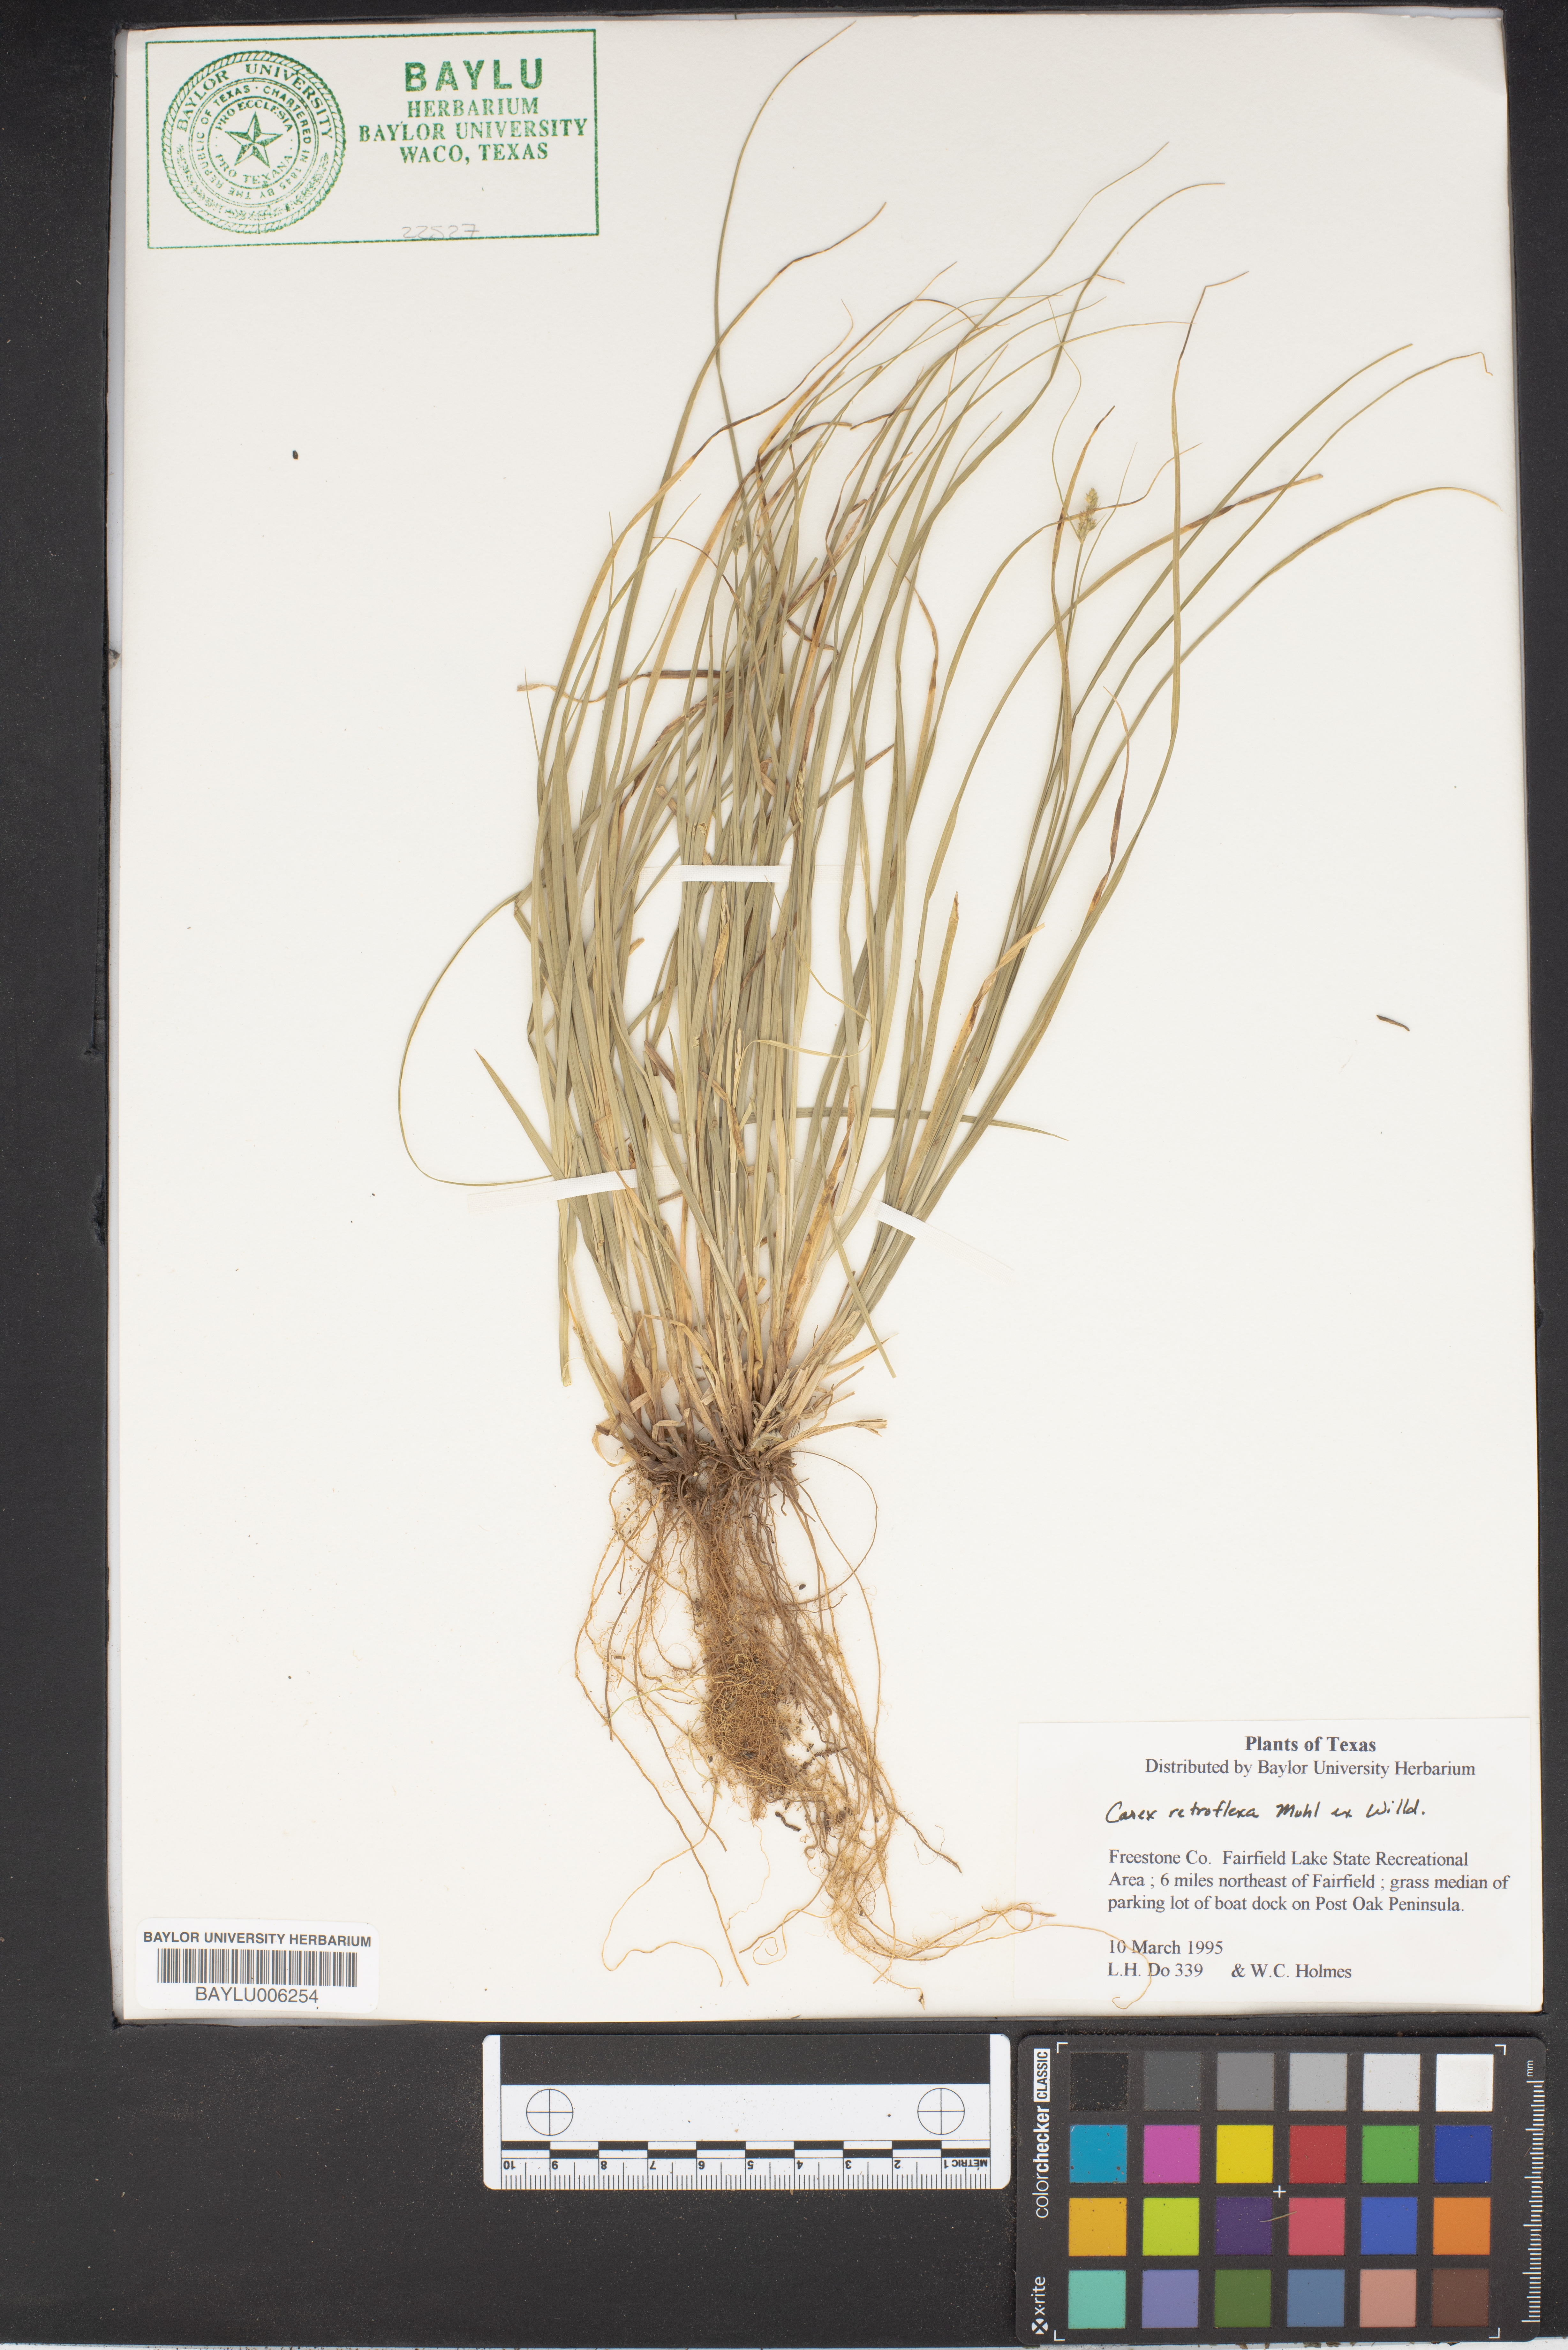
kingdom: Plantae
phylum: Tracheophyta
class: Liliopsida
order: Poales
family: Cyperaceae
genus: Carex
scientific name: Carex retroflexa
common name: Reflexed sedge
